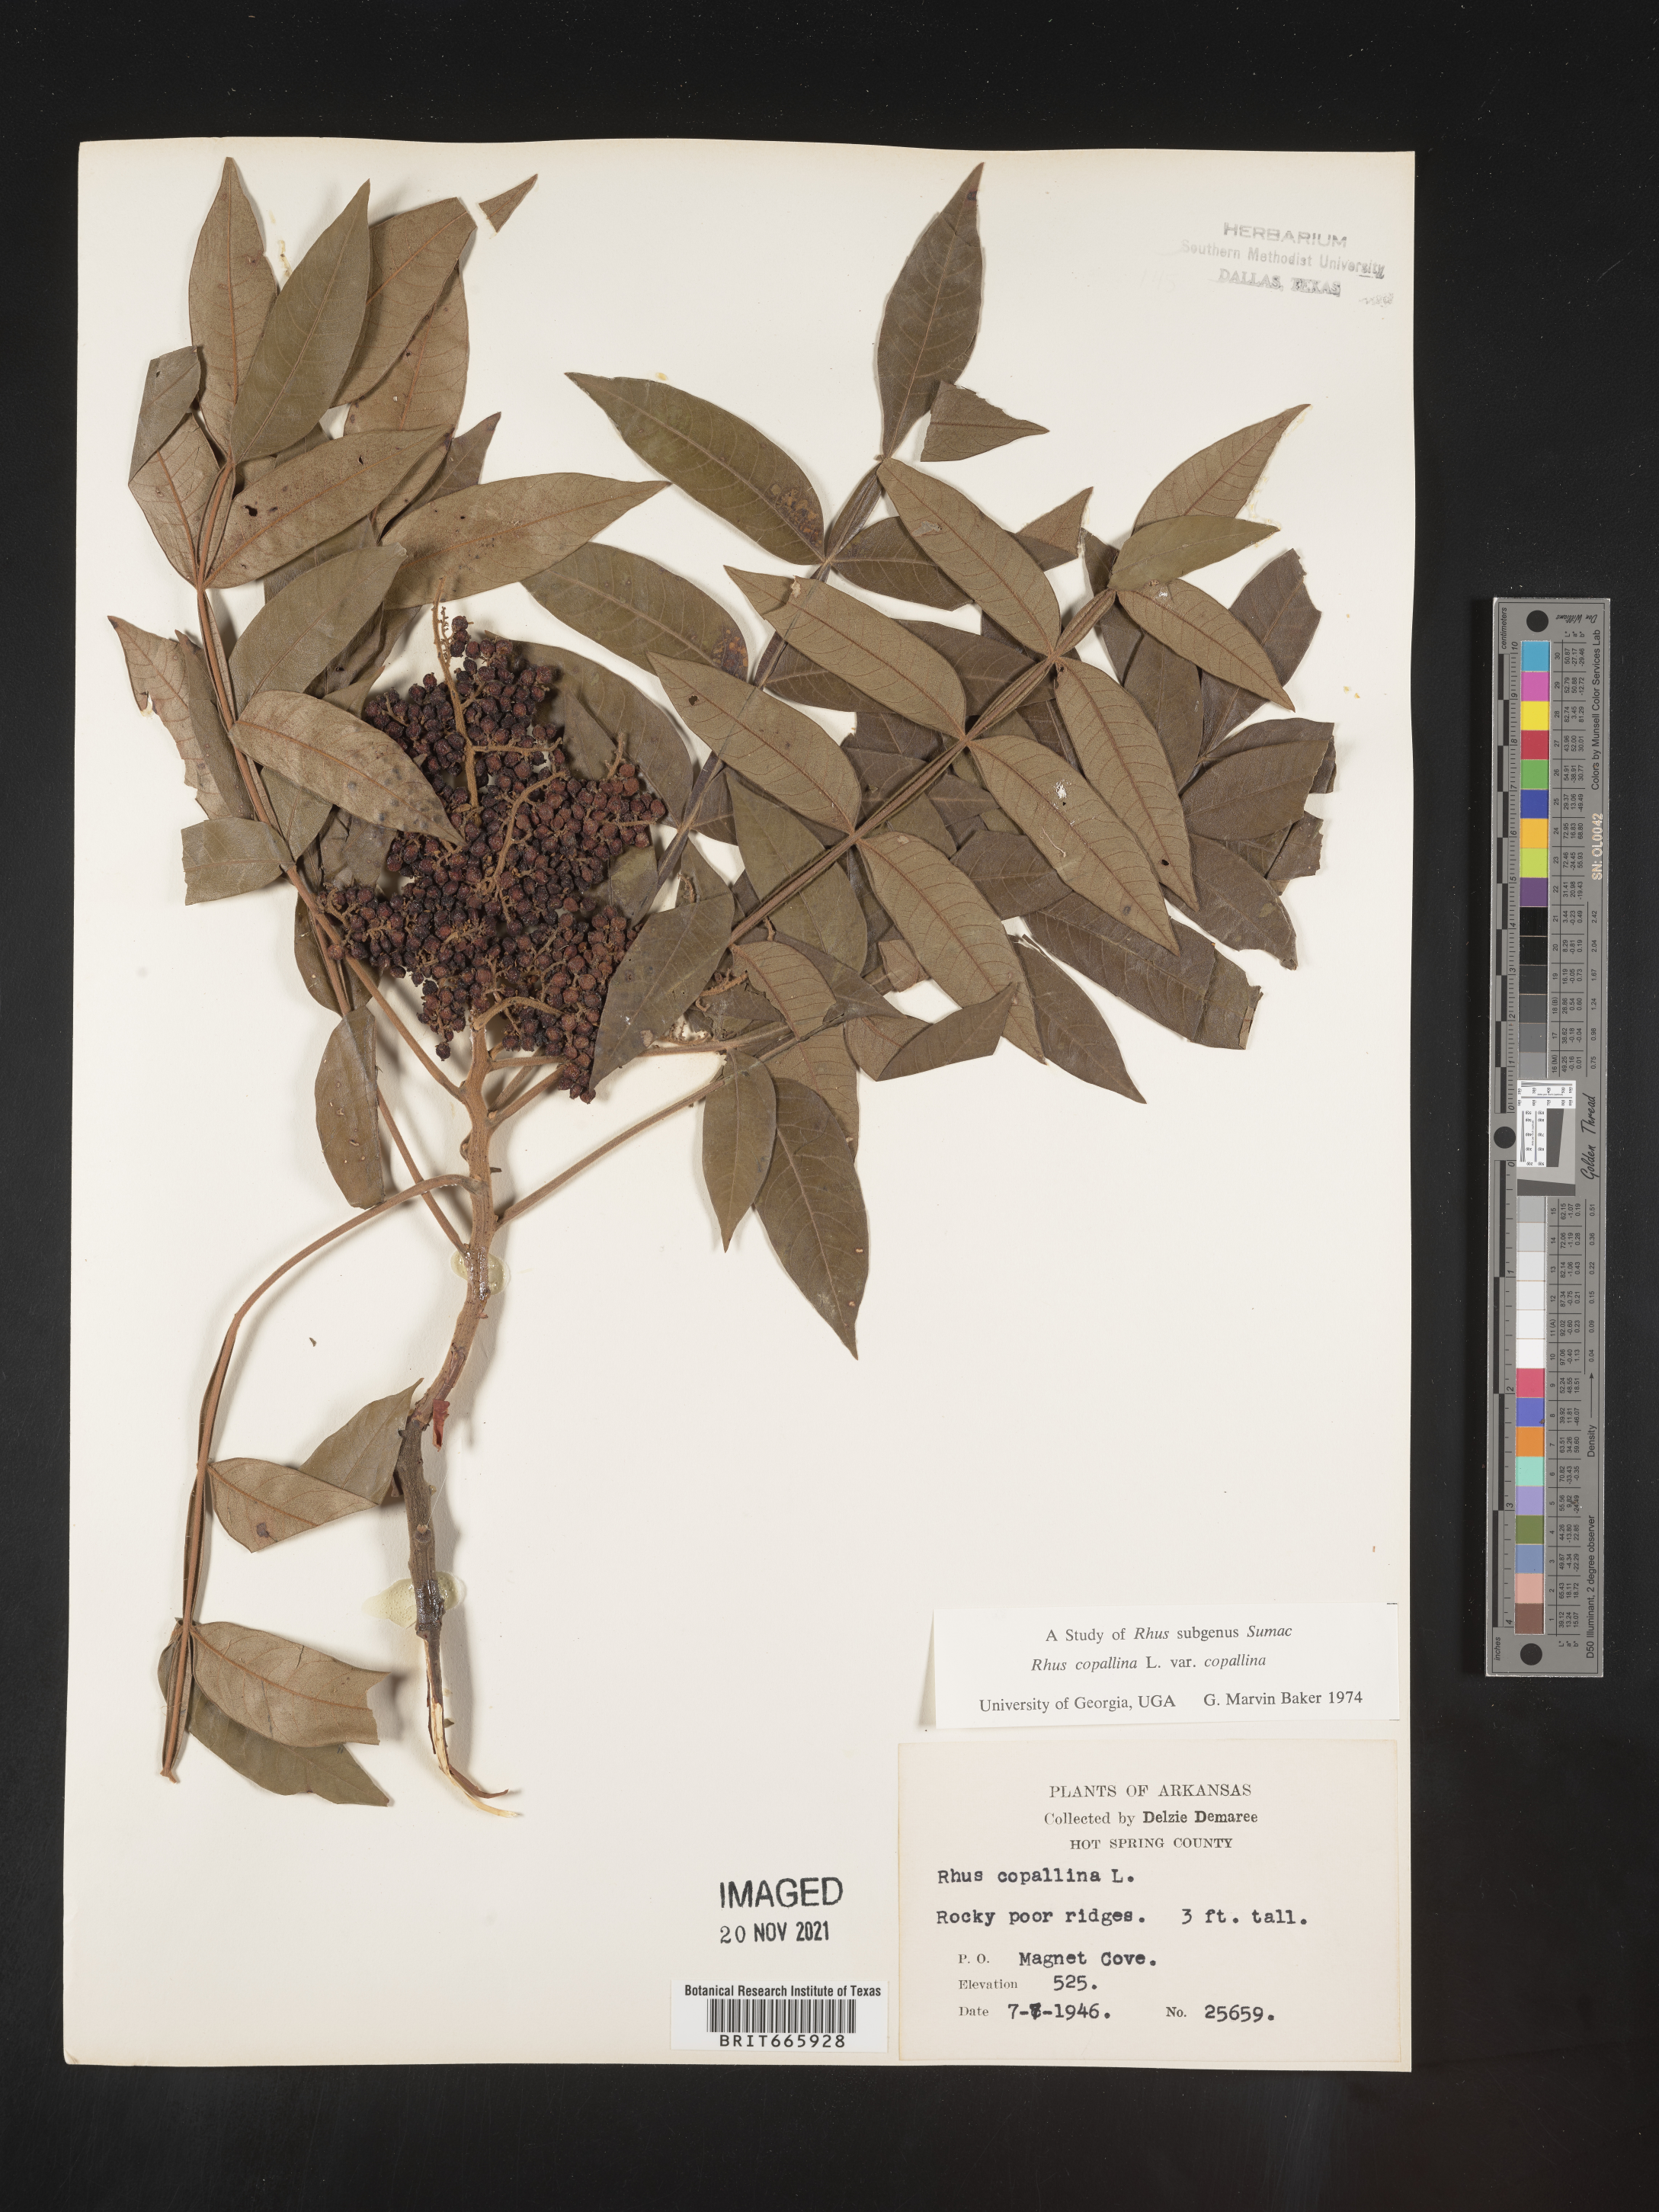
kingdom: Plantae
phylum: Tracheophyta
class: Magnoliopsida
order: Sapindales
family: Anacardiaceae
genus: Rhus
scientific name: Rhus copallina
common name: Shining sumac
